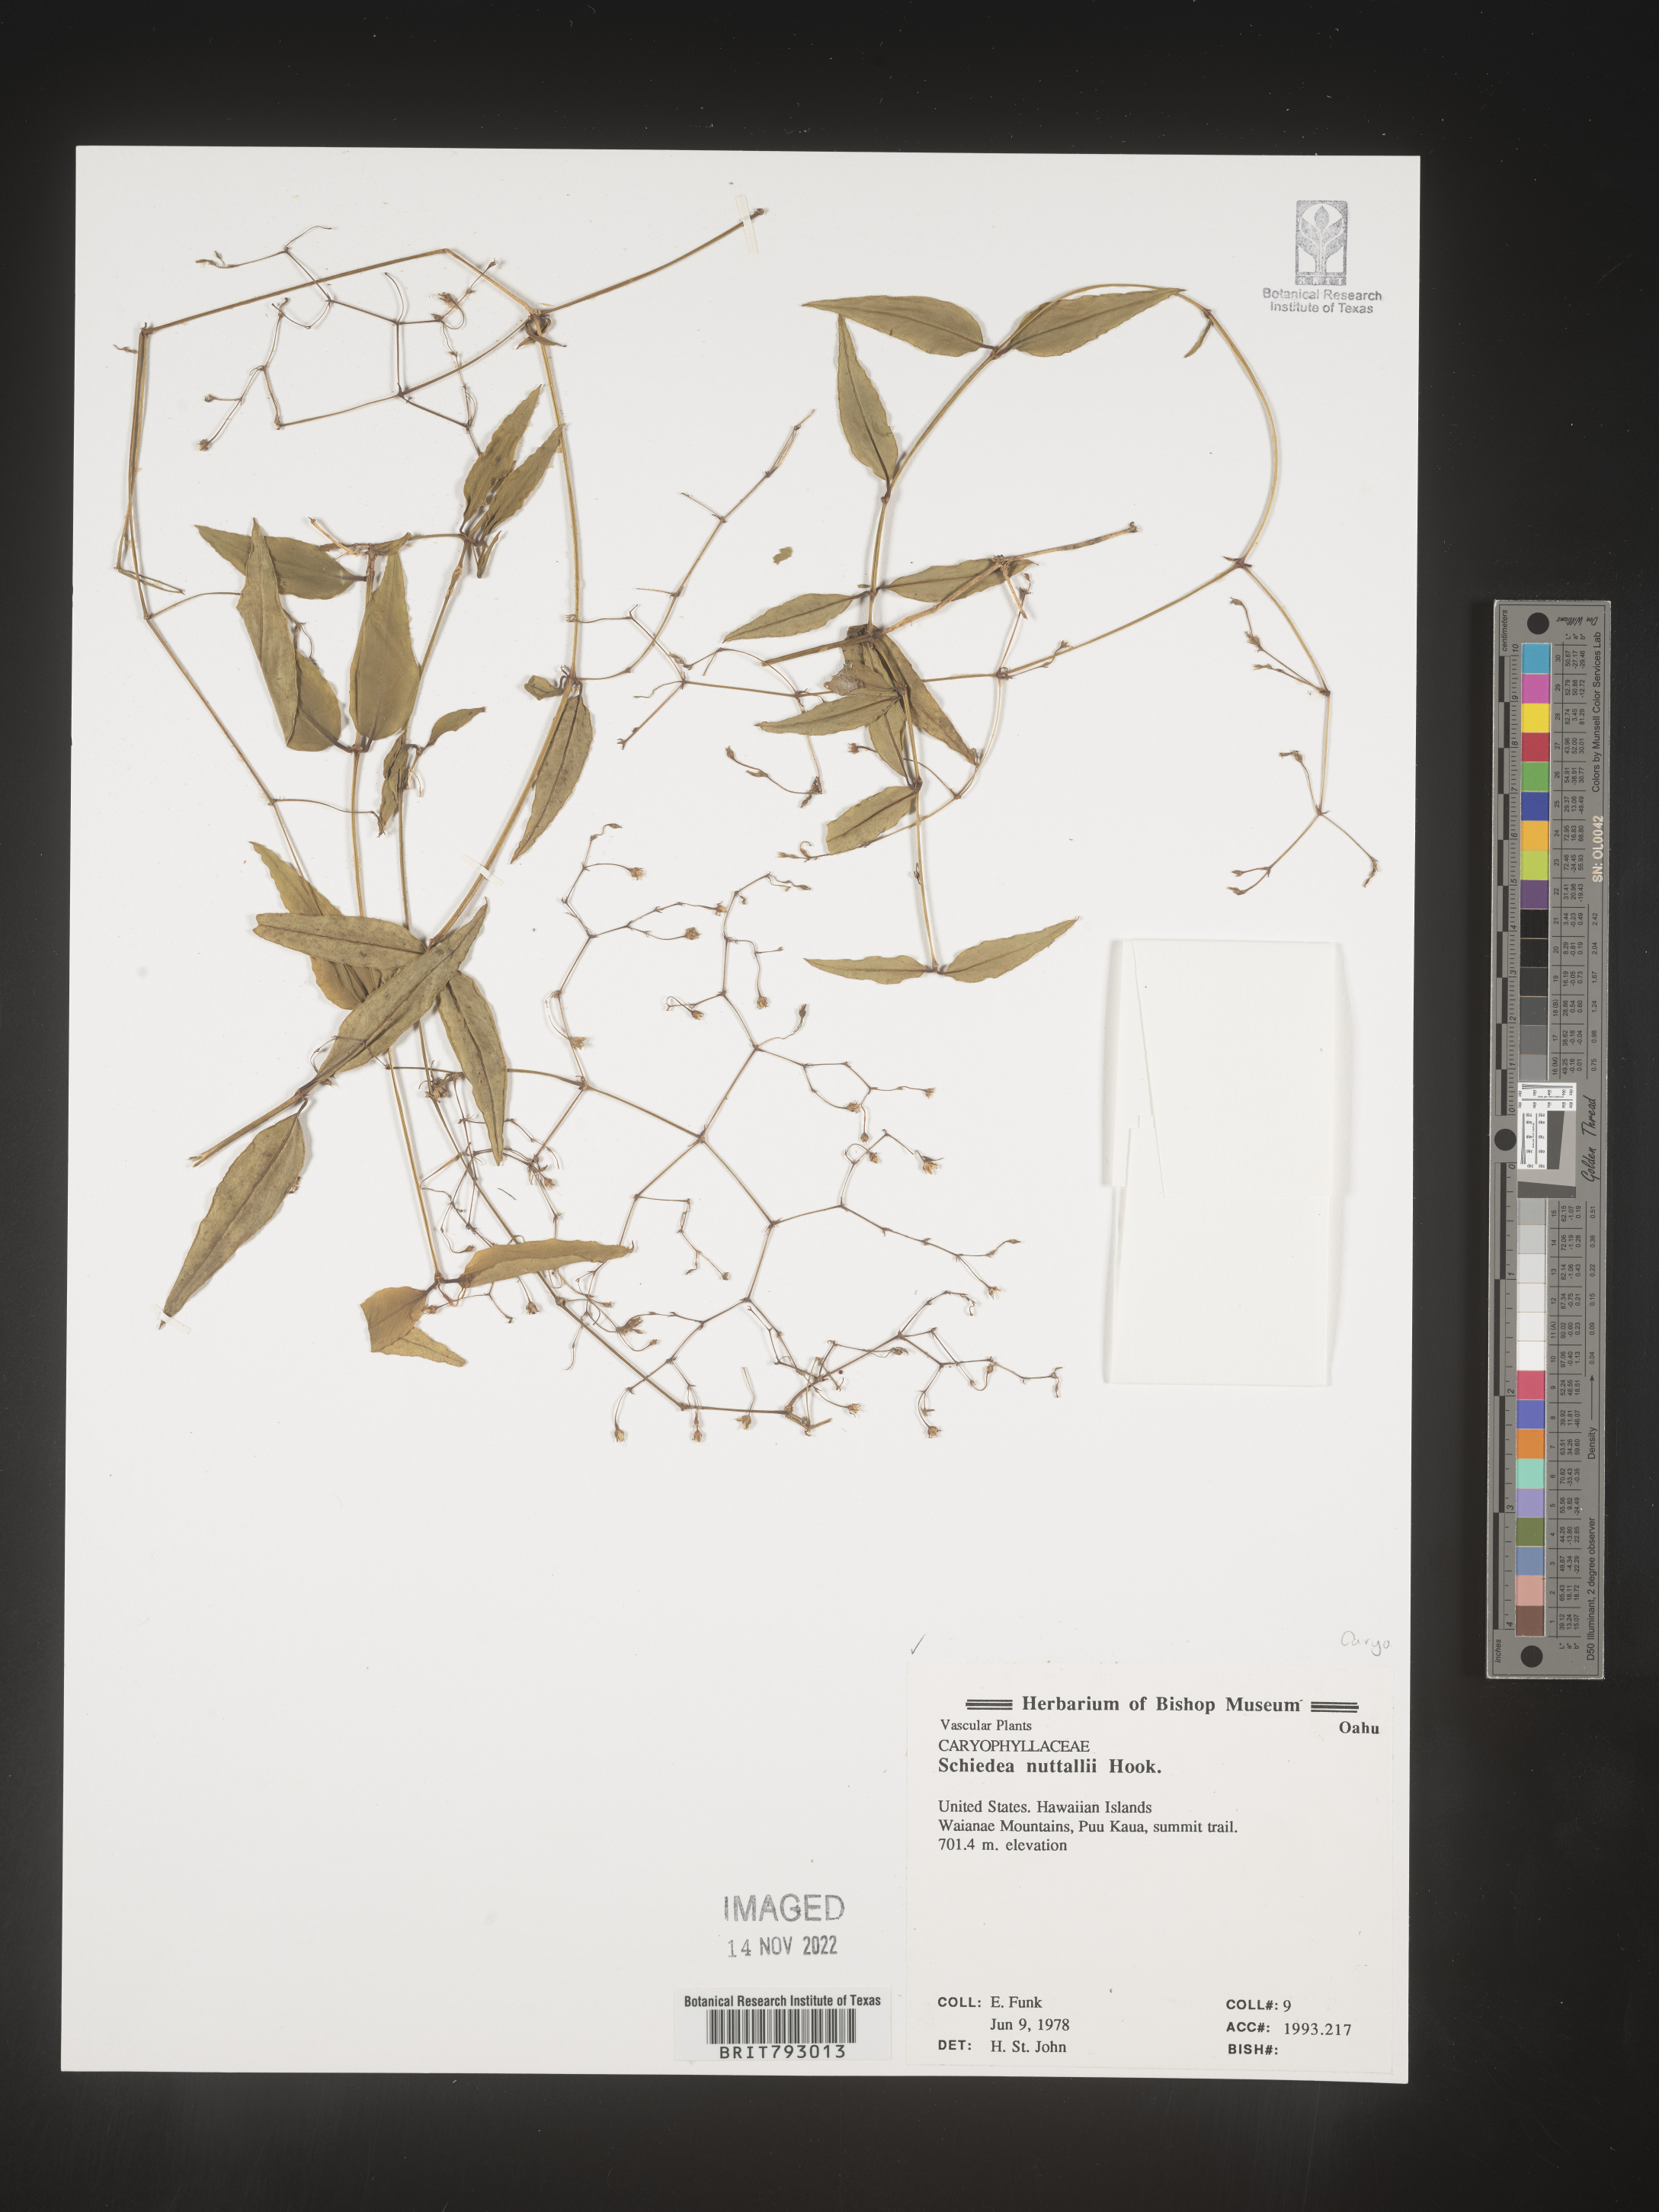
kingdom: Plantae
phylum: Tracheophyta
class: Magnoliopsida
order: Caryophyllales
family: Caryophyllaceae
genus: Schiedea
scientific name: Schiedea
